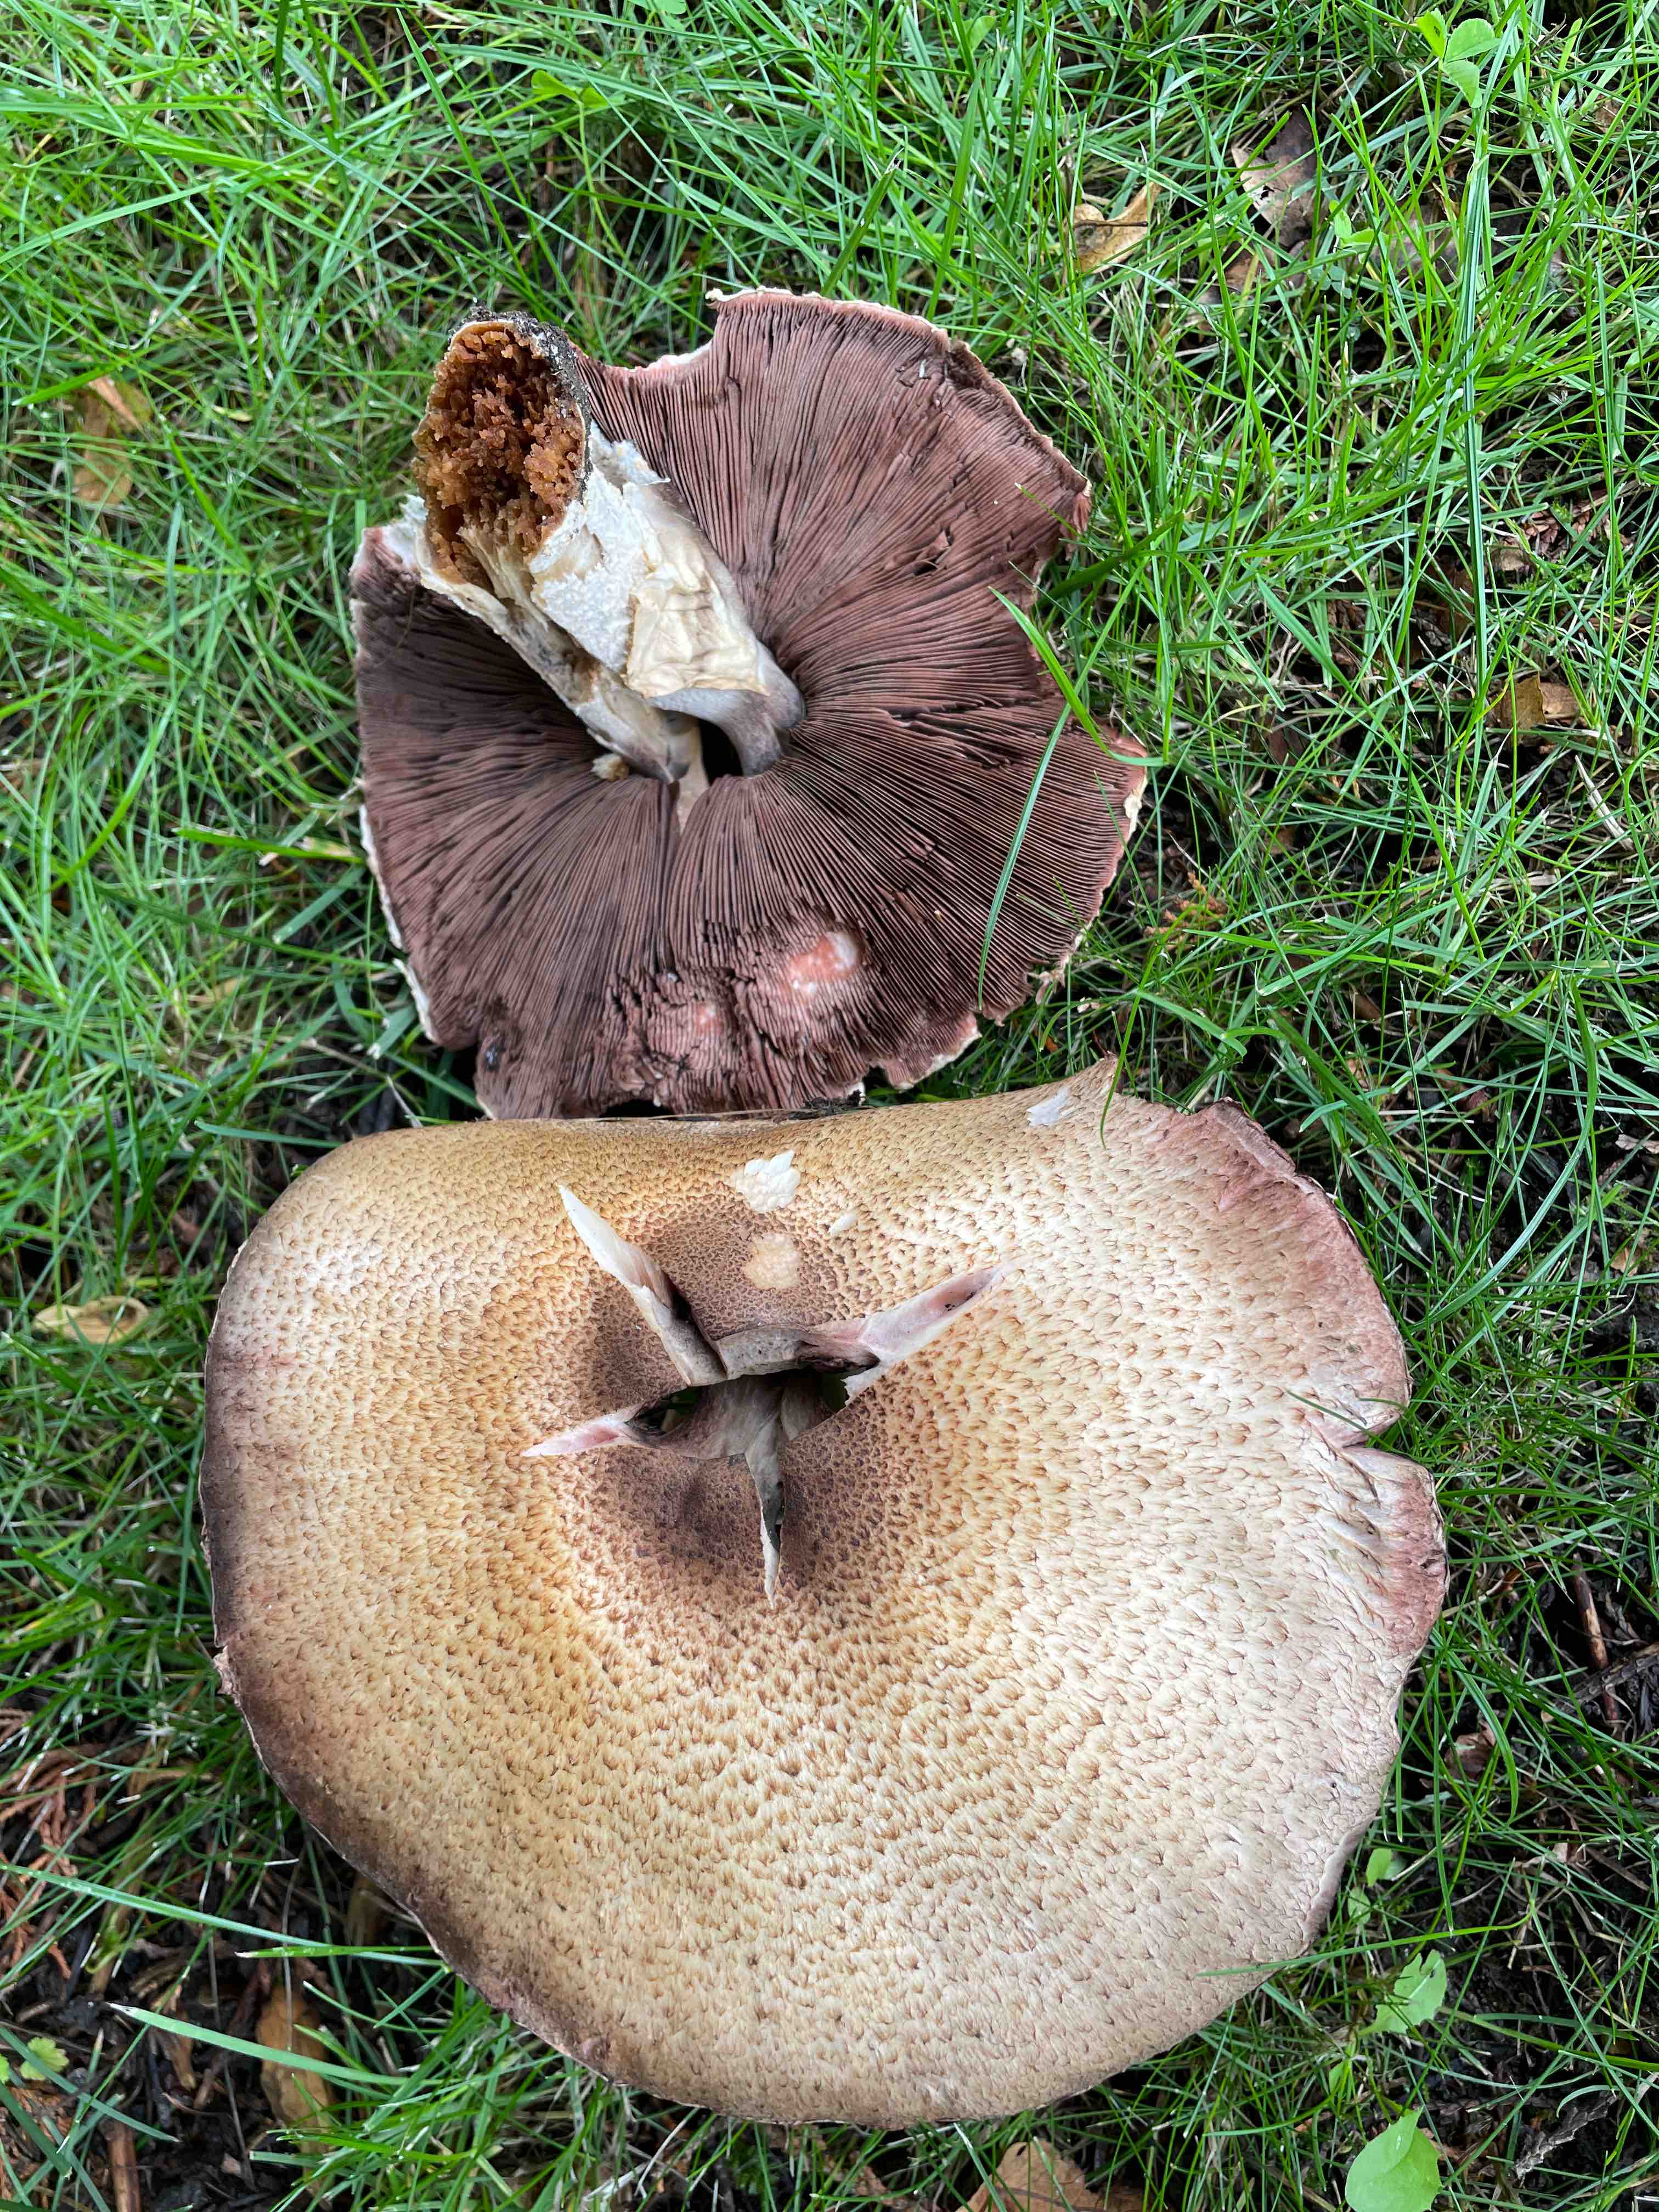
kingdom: Fungi
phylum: Basidiomycota
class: Agaricomycetes
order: Agaricales
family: Agaricaceae
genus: Agaricus
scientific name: Agaricus augustus
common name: prægtig champignon
